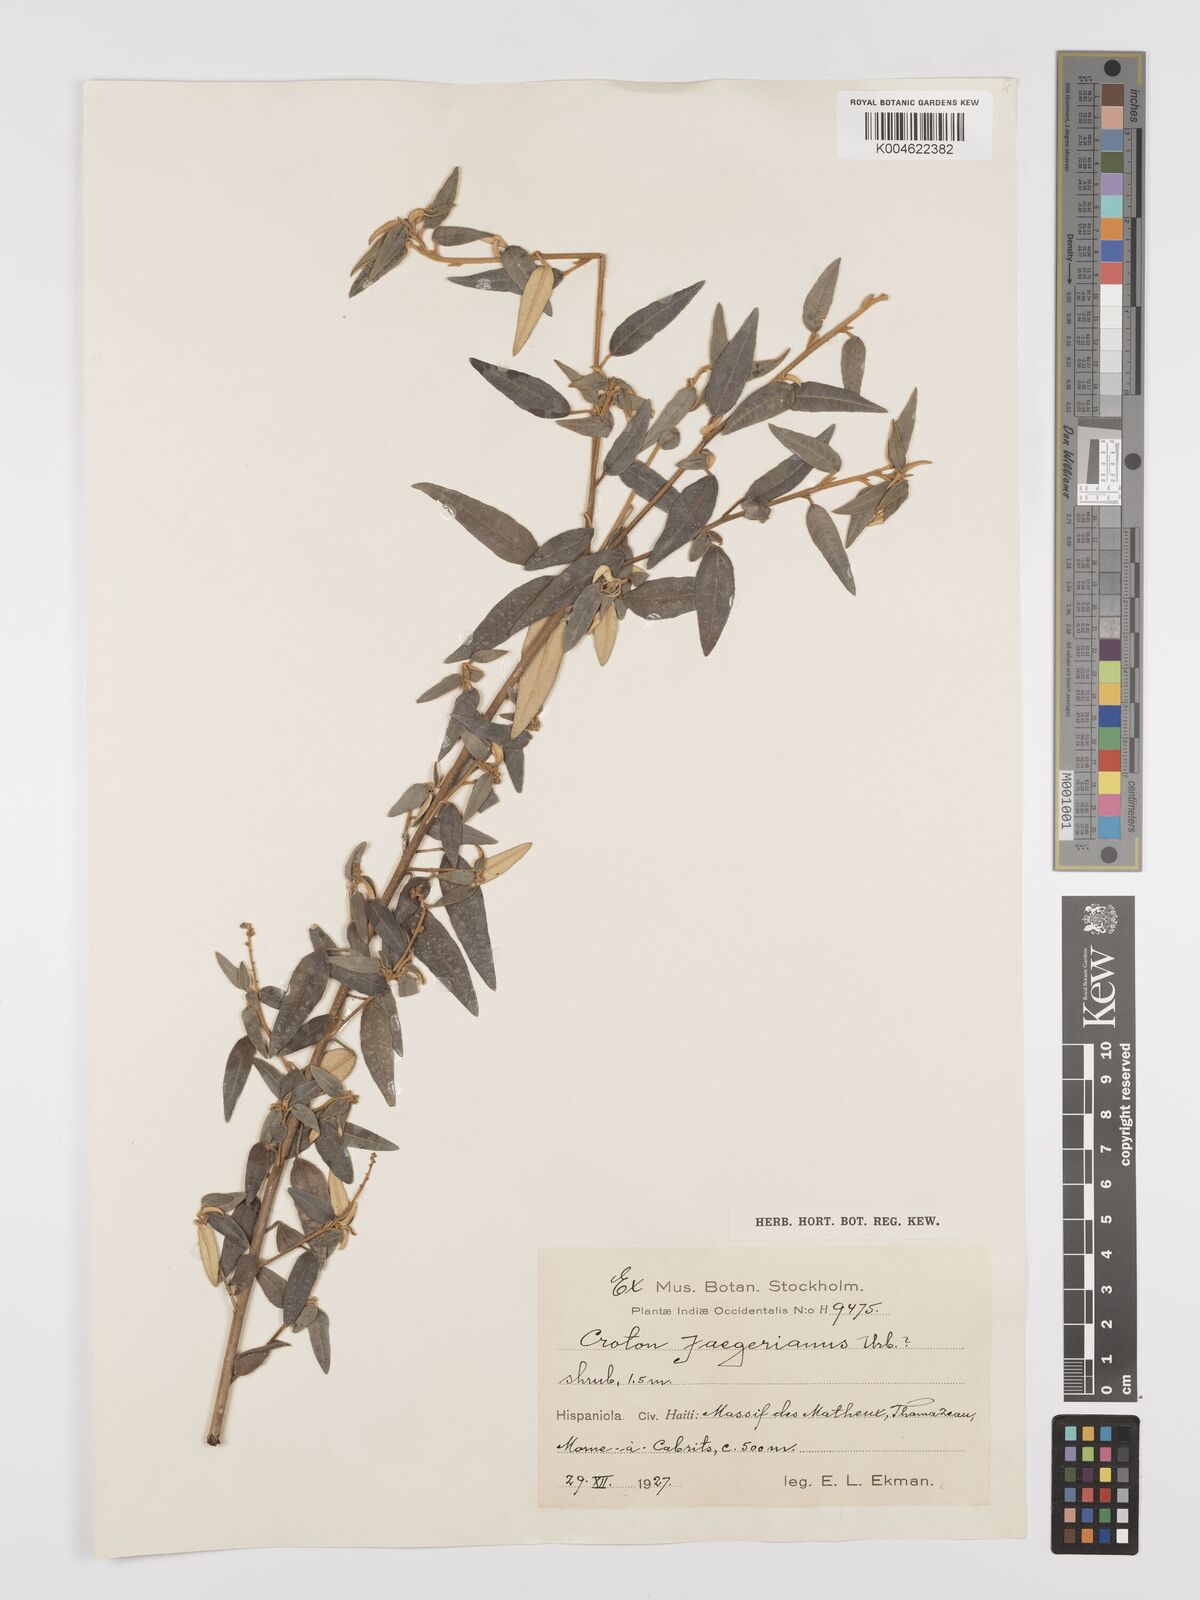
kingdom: Plantae
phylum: Tracheophyta
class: Magnoliopsida
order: Malpighiales
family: Euphorbiaceae
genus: Croton
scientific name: Croton linearis
